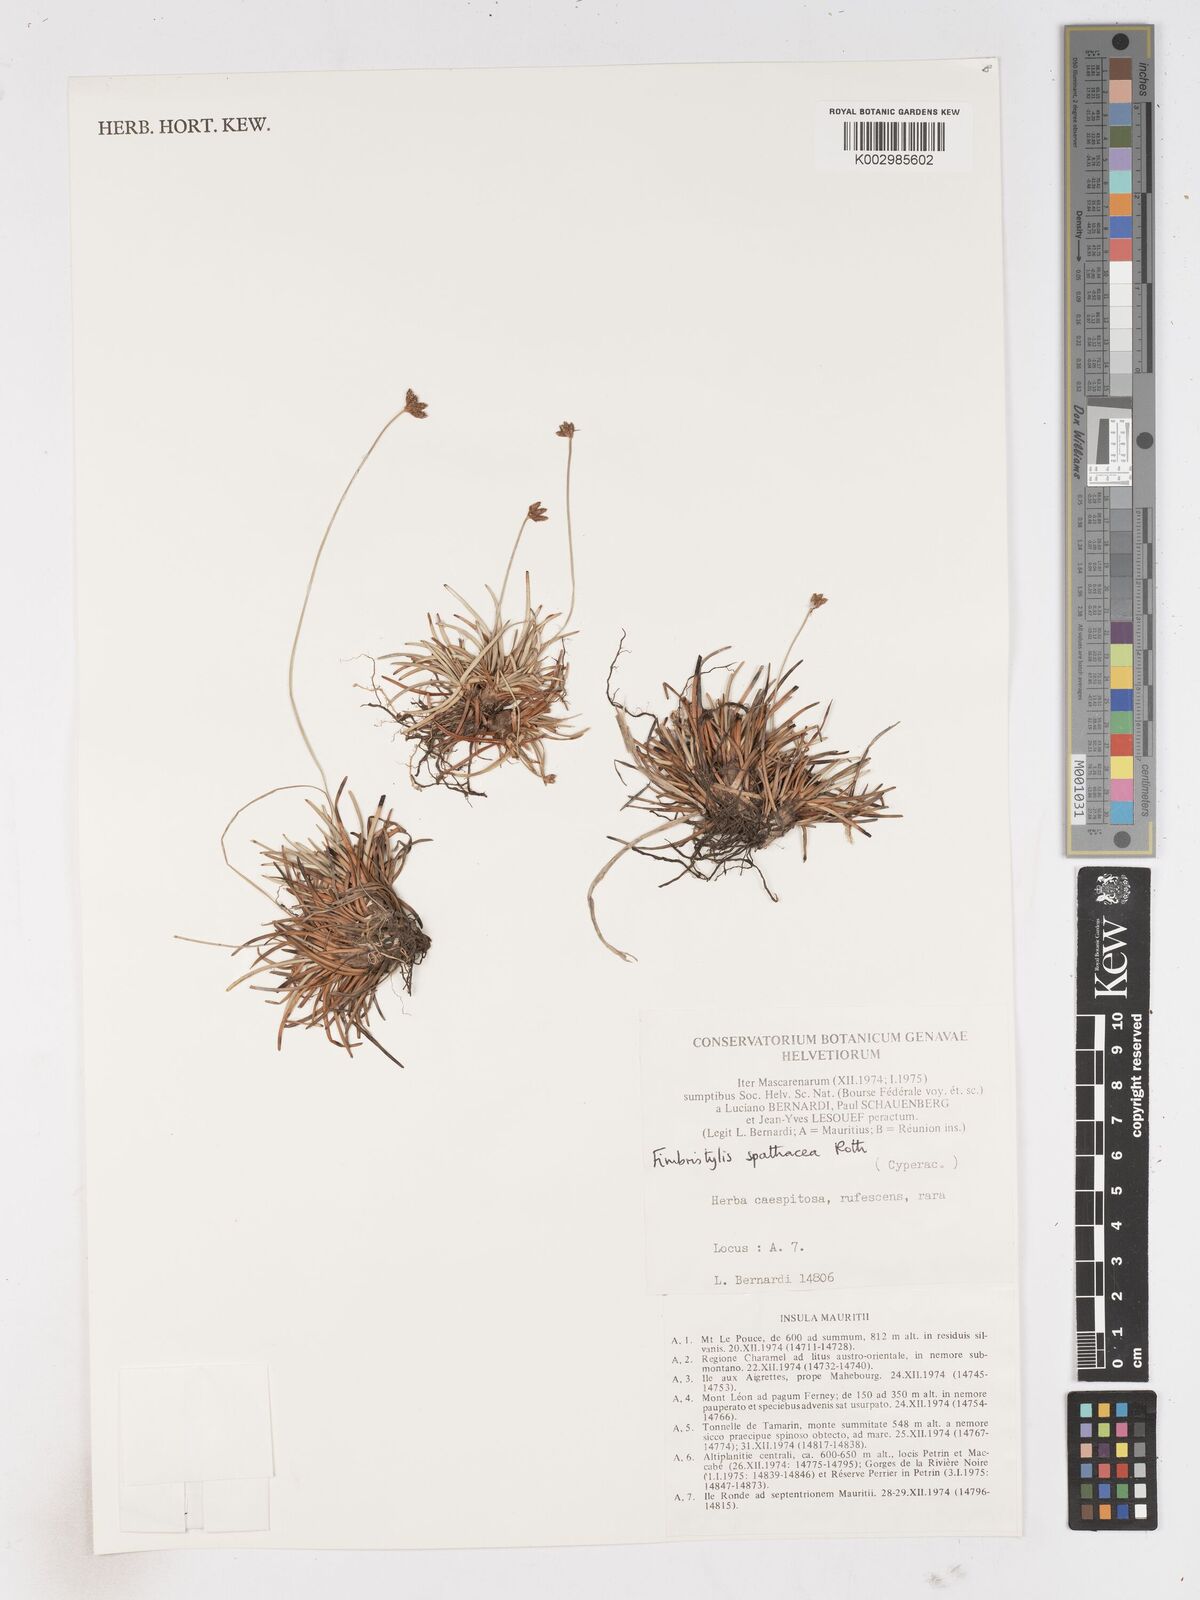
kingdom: Plantae
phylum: Tracheophyta
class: Liliopsida
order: Poales
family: Cyperaceae
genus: Fimbristylis
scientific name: Fimbristylis cymosa
